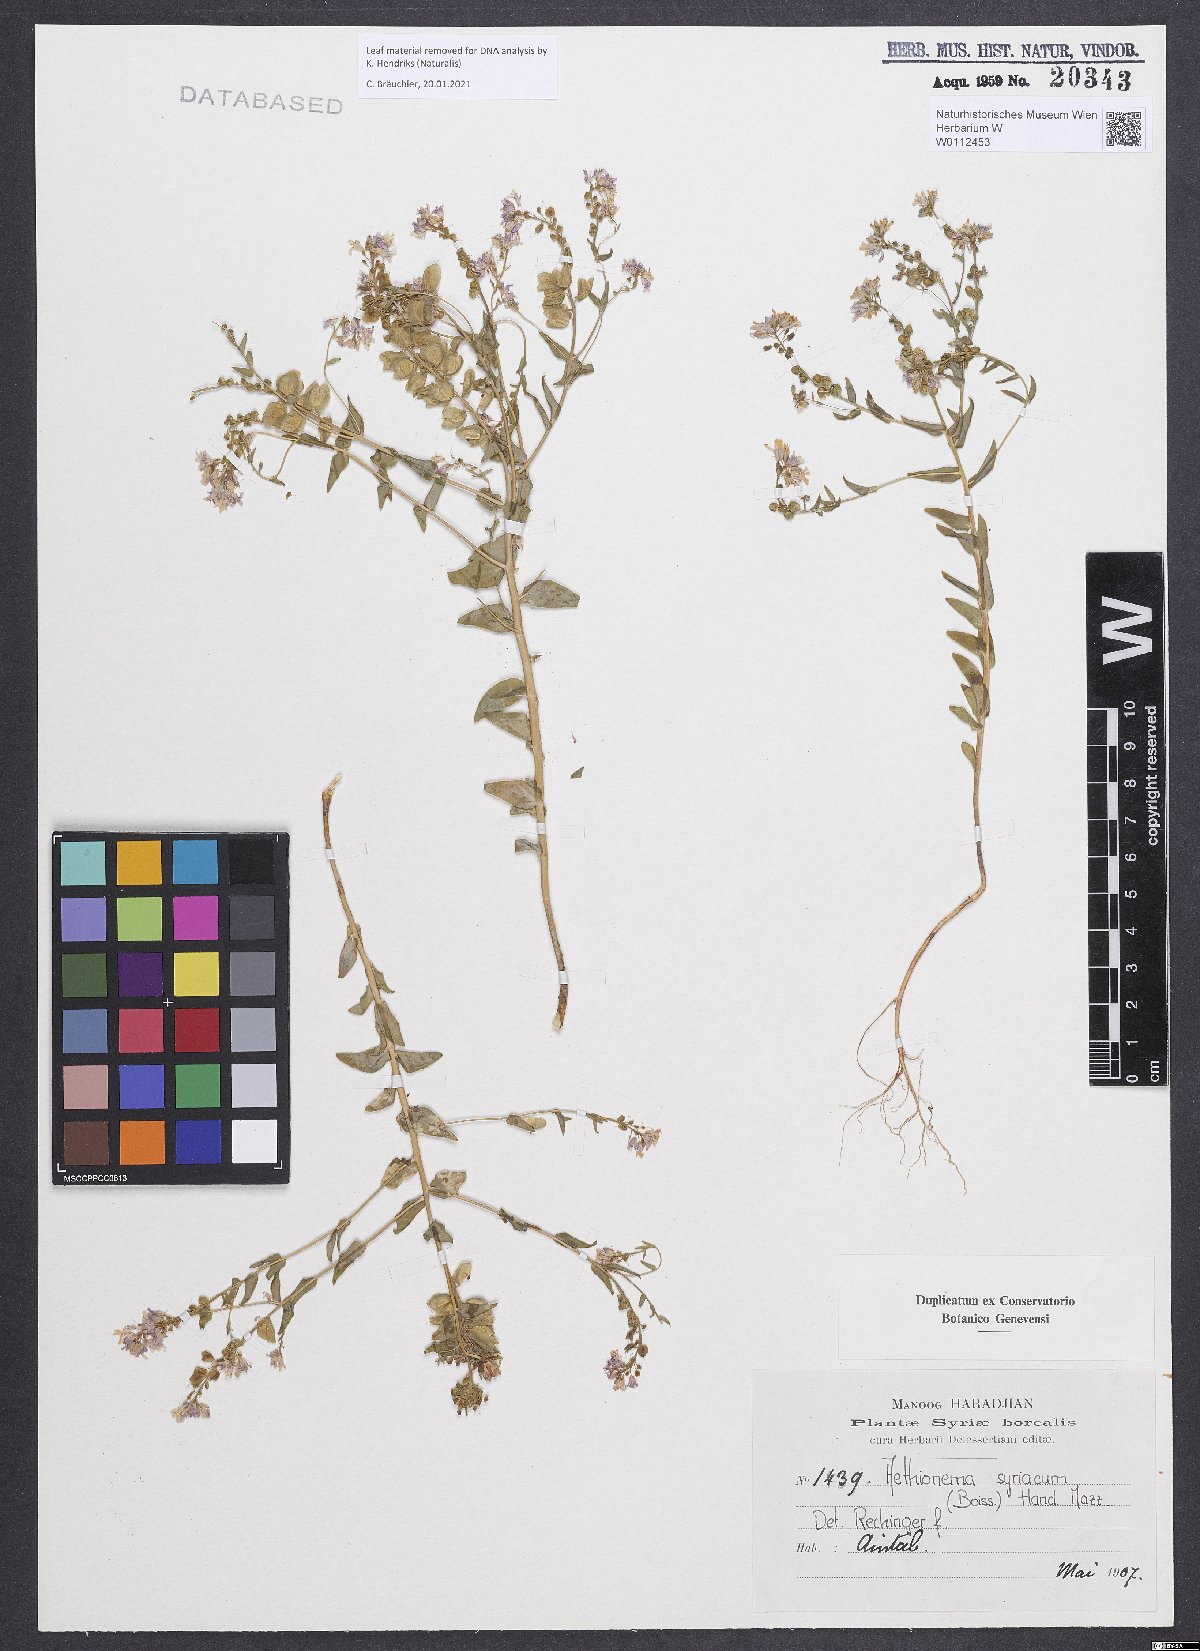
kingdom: Plantae
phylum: Tracheophyta
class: Magnoliopsida
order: Brassicales
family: Brassicaceae
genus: Aethionema
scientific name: Aethionema syriacum
